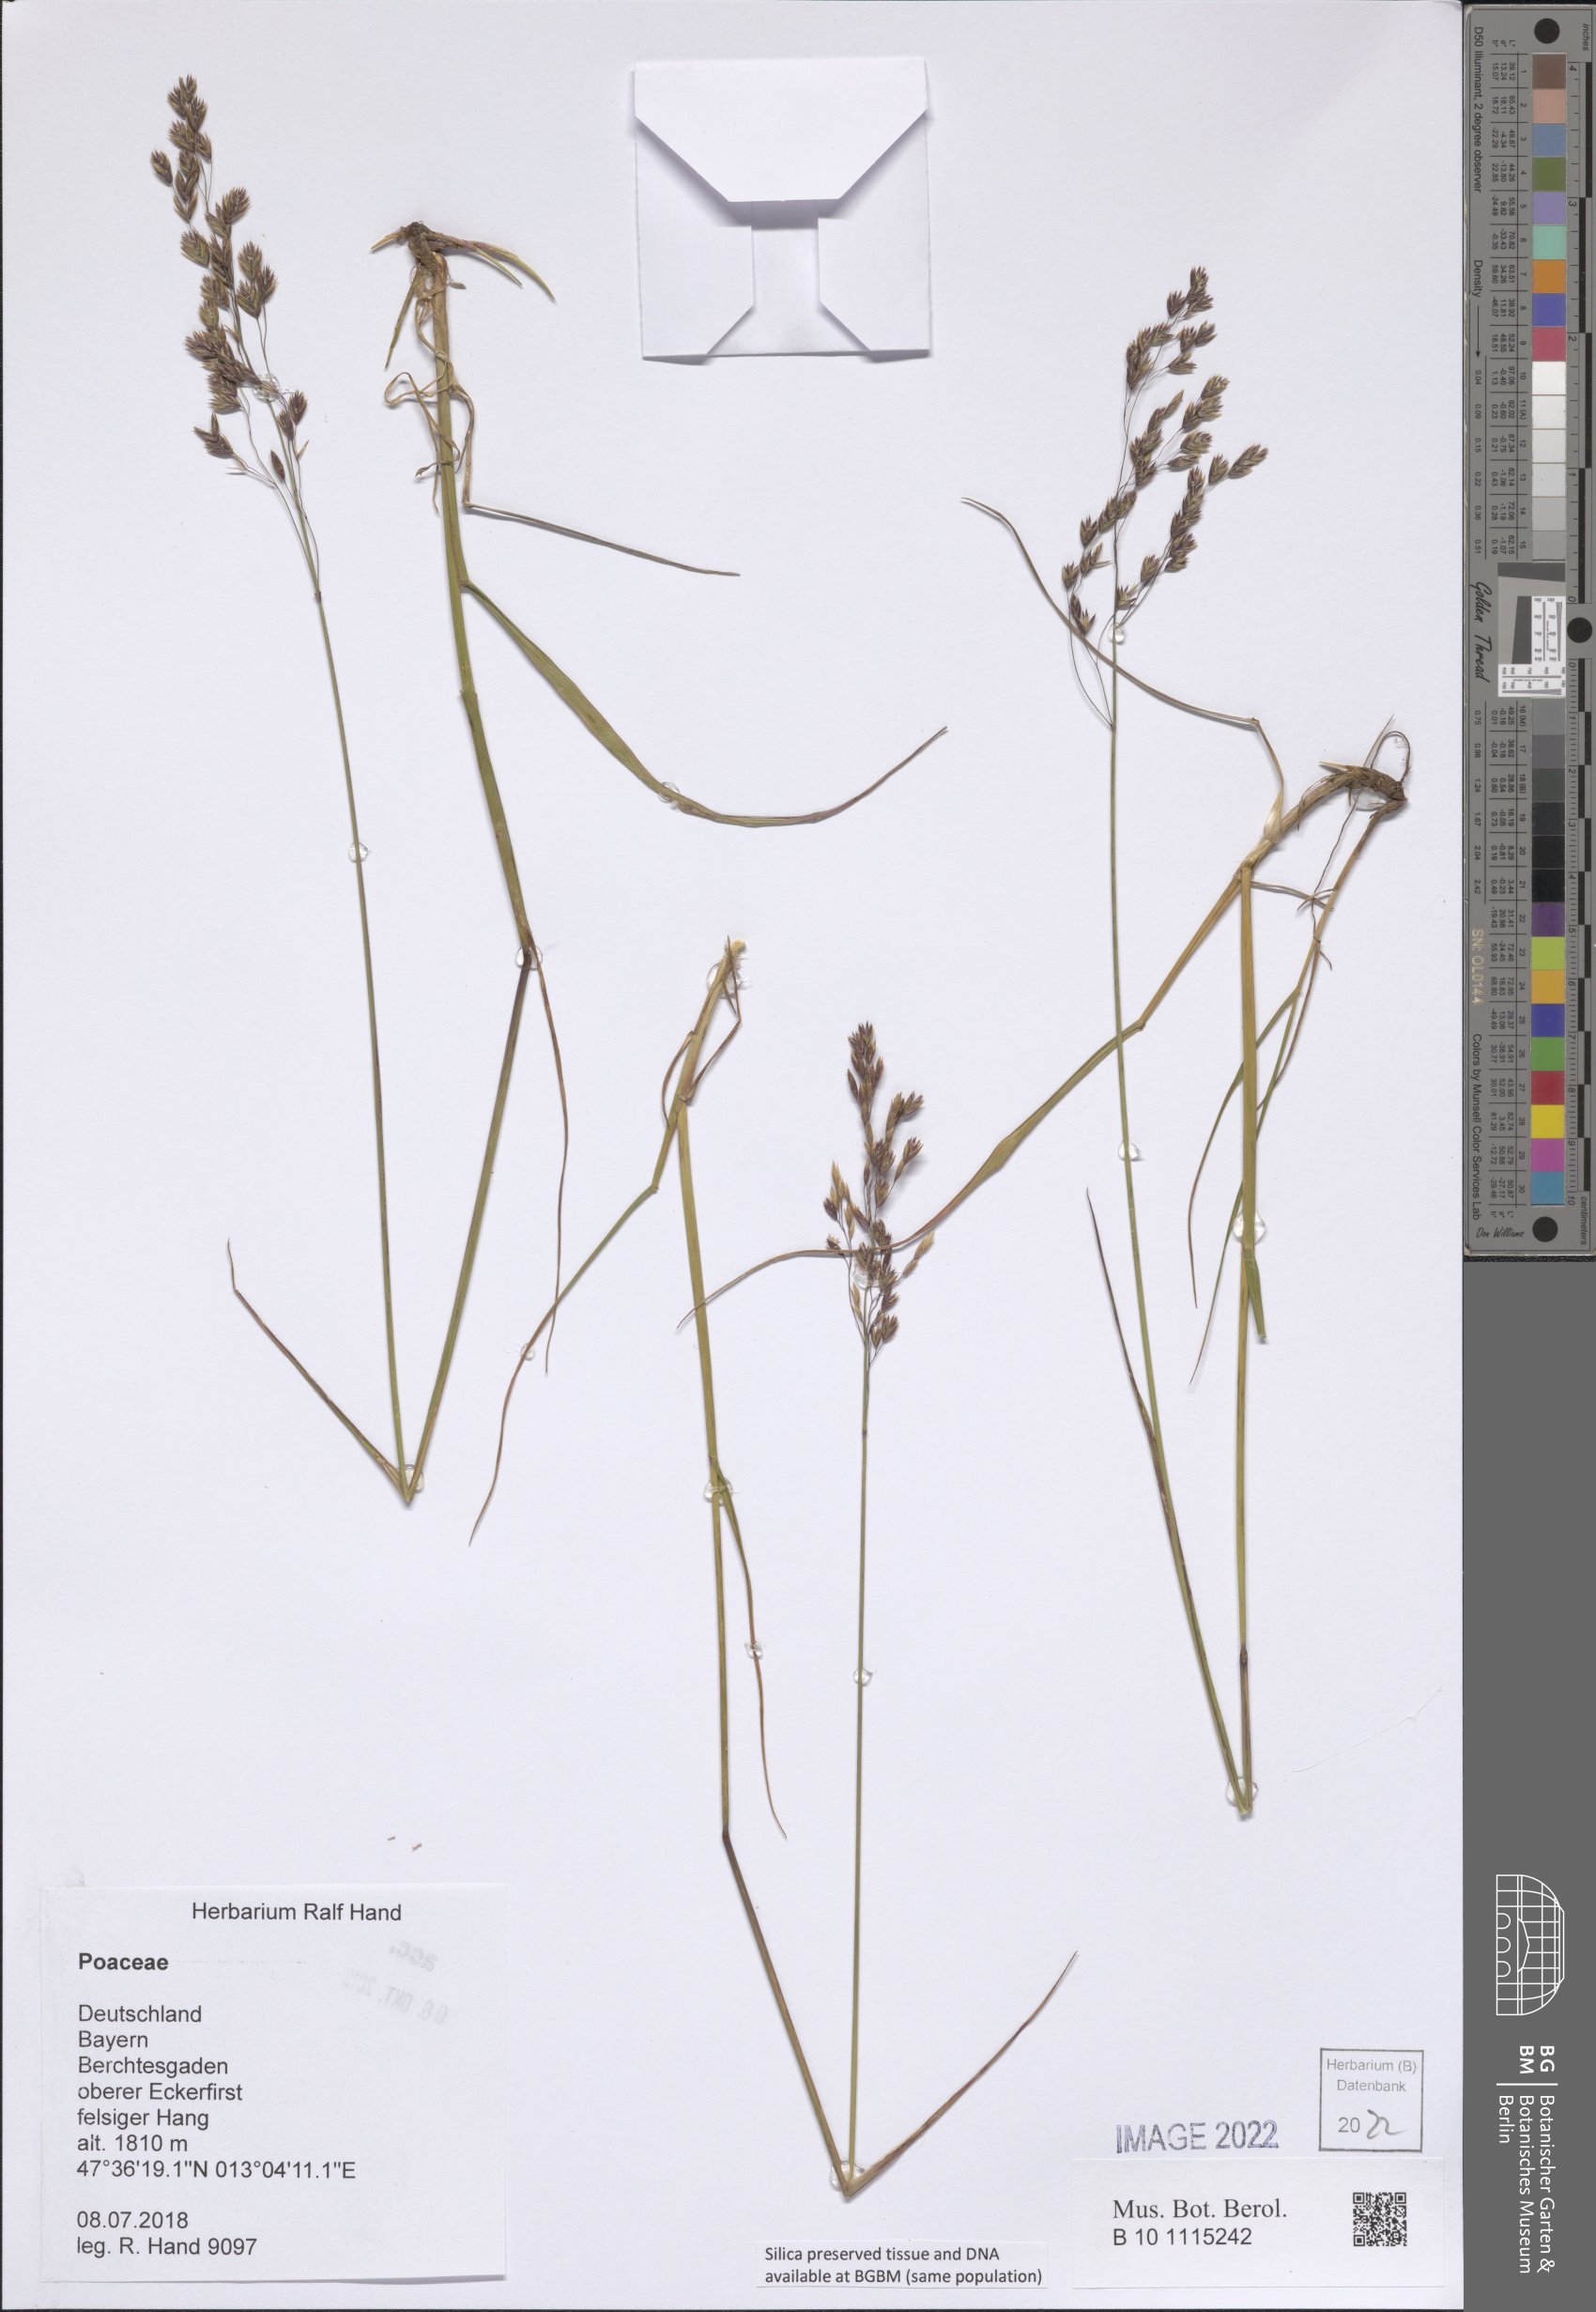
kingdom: Plantae
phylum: Tracheophyta
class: Liliopsida
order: Poales
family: Poaceae
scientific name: Poaceae
